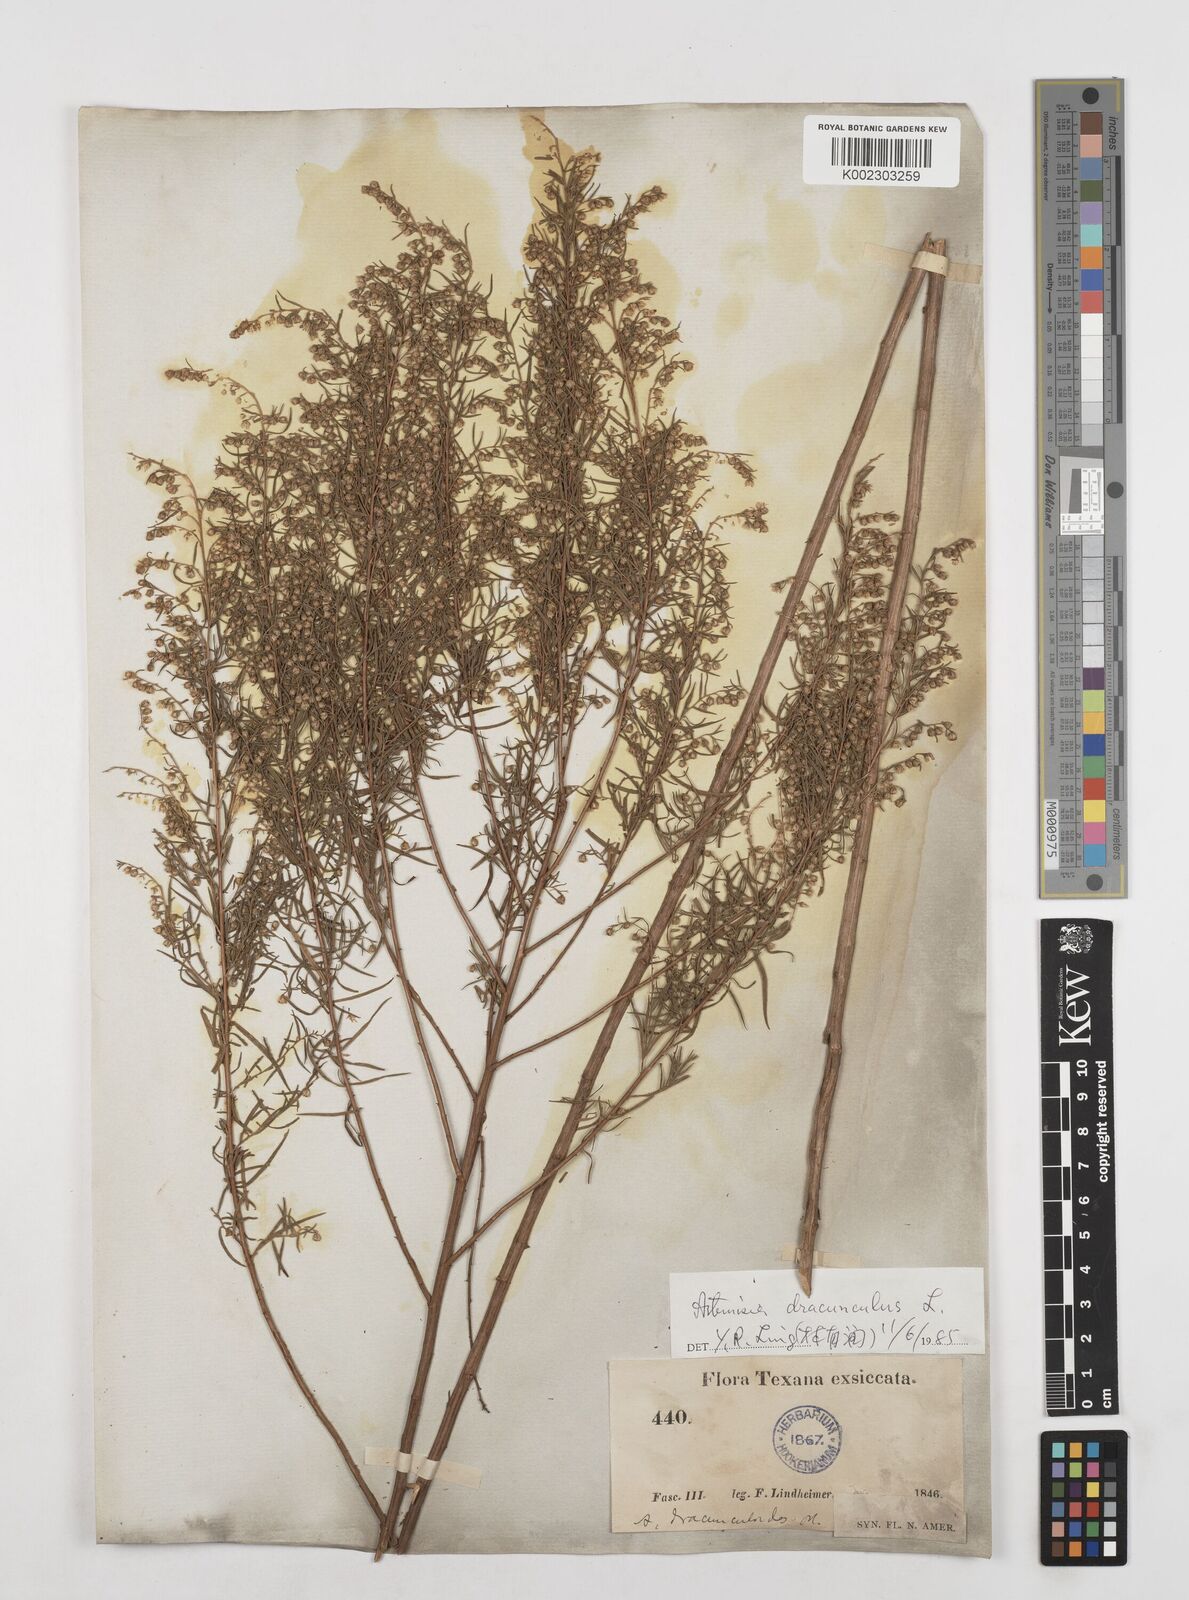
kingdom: Plantae
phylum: Tracheophyta
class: Magnoliopsida
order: Asterales
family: Asteraceae
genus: Artemisia
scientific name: Artemisia dracunculus
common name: Tarragon
